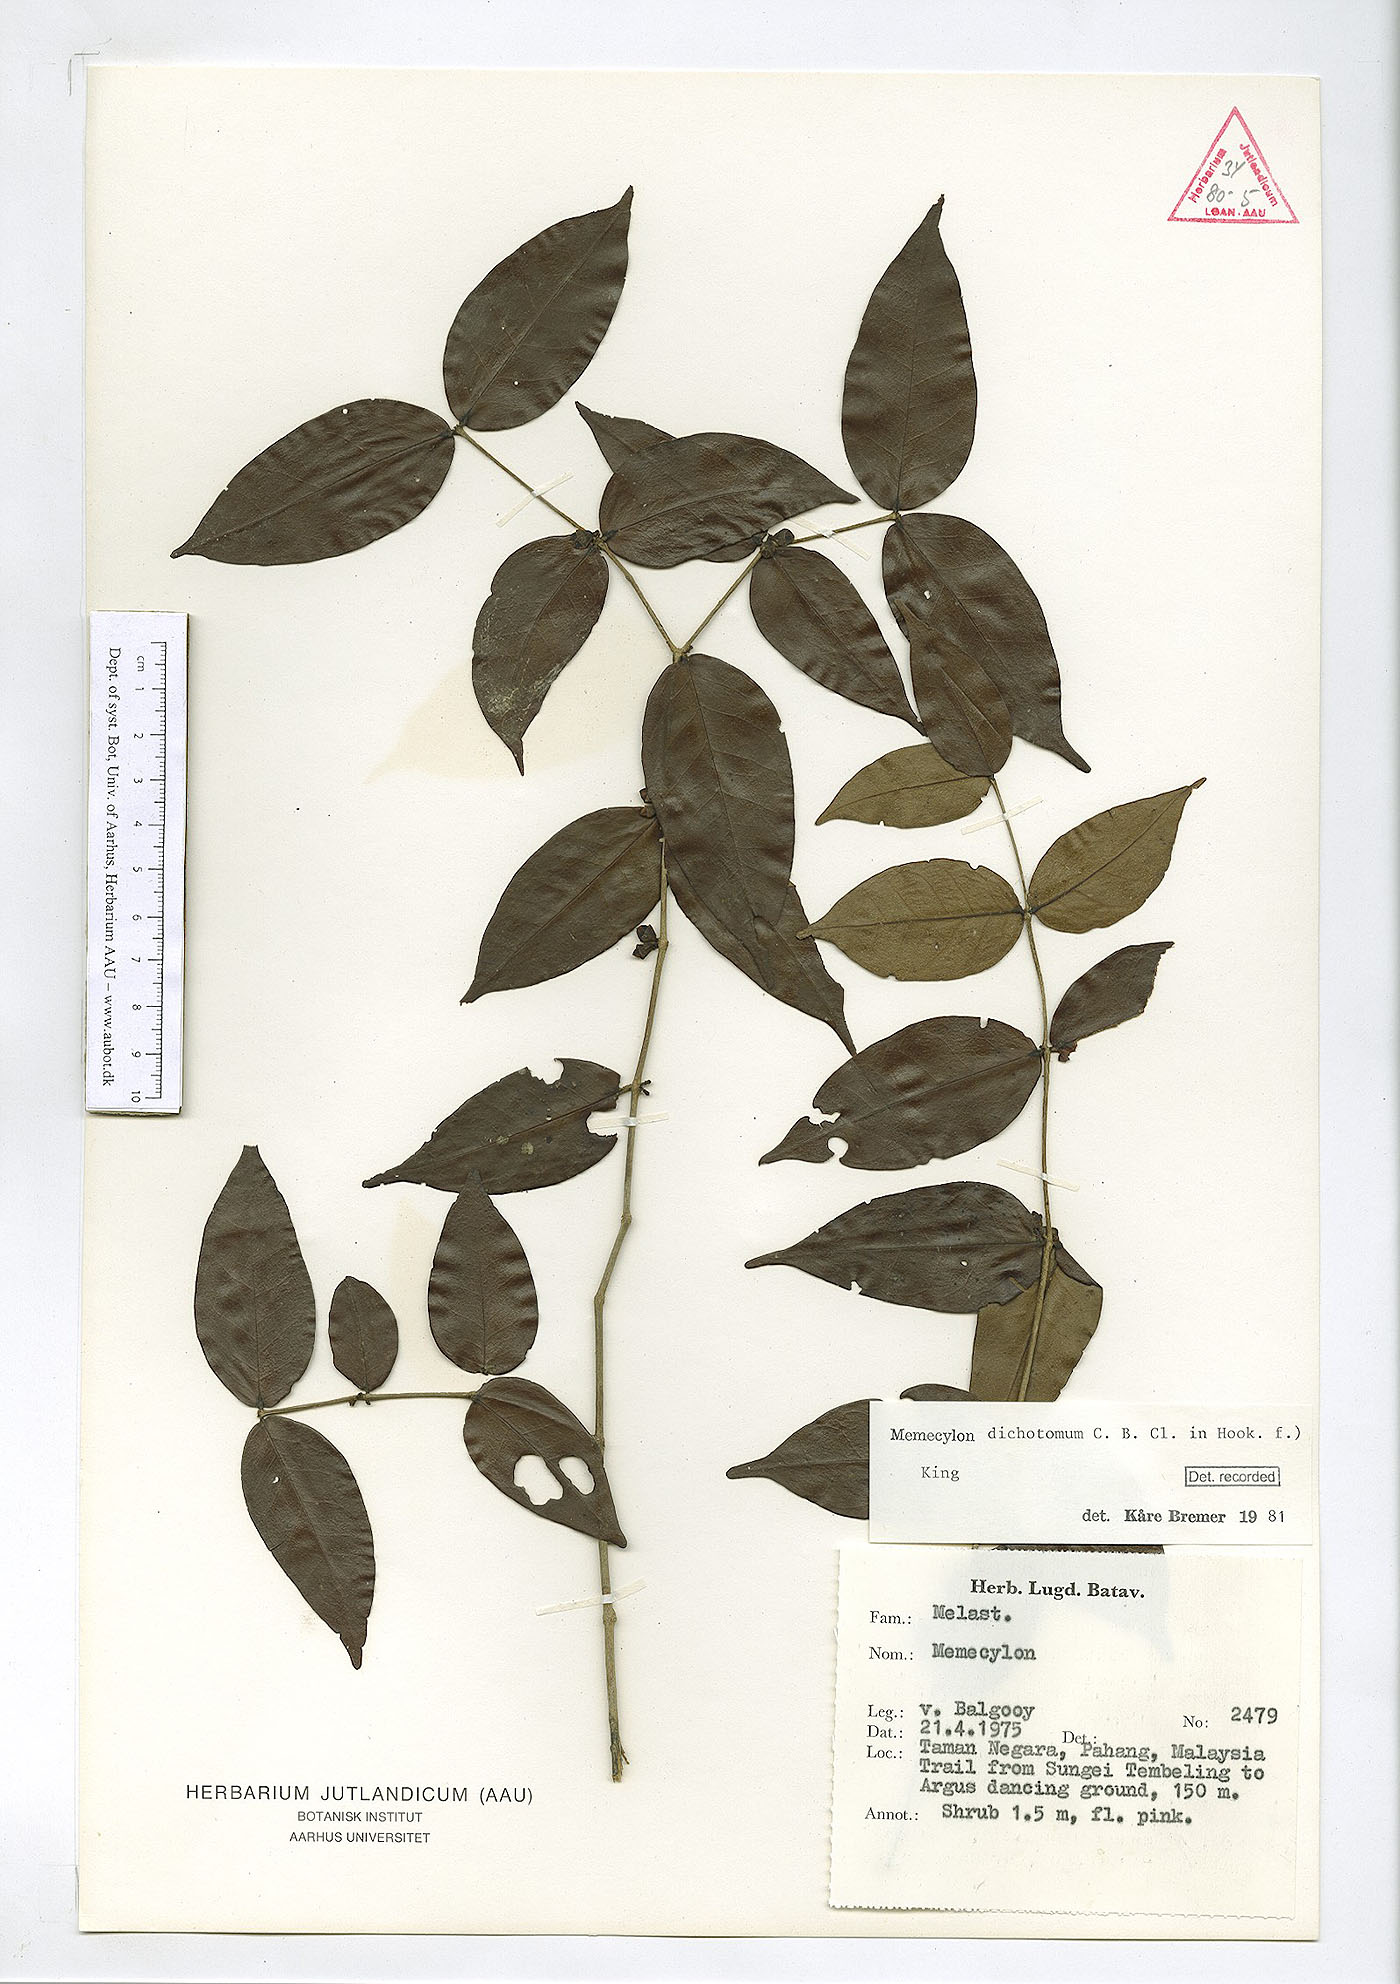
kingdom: Plantae
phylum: Tracheophyta
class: Magnoliopsida
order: Myrtales
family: Melastomataceae
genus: Memecylon
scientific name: Memecylon dichotomum
